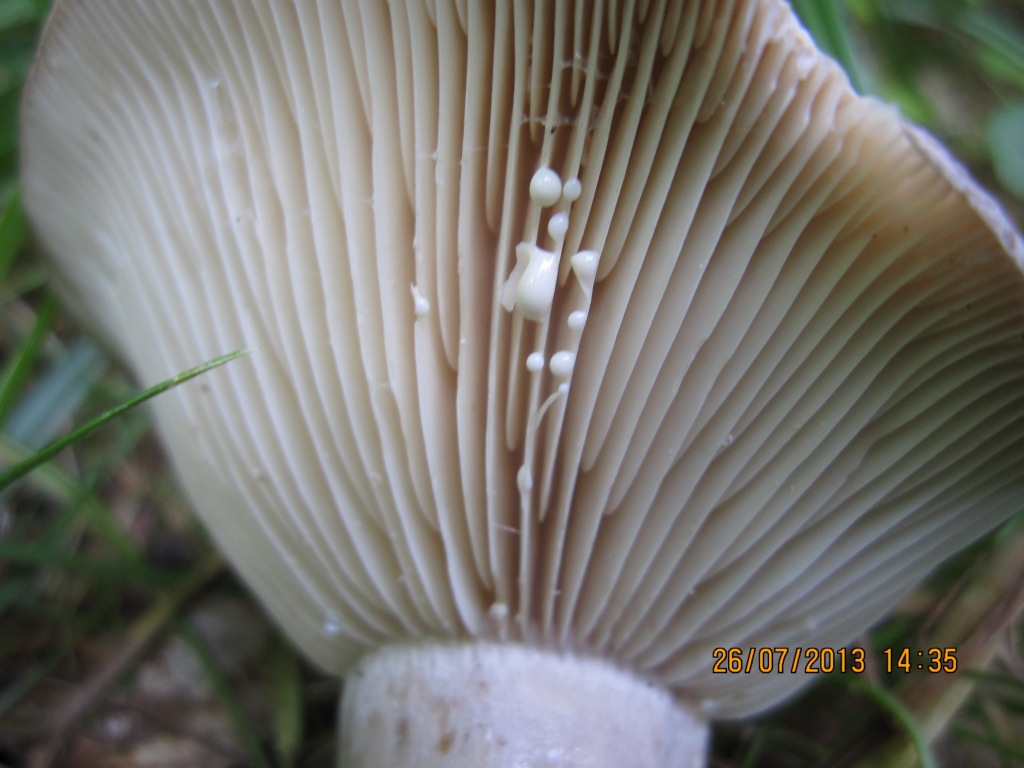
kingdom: Fungi
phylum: Basidiomycota
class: Agaricomycetes
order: Russulales
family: Russulaceae
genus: Lactarius
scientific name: Lactarius flexuosus
